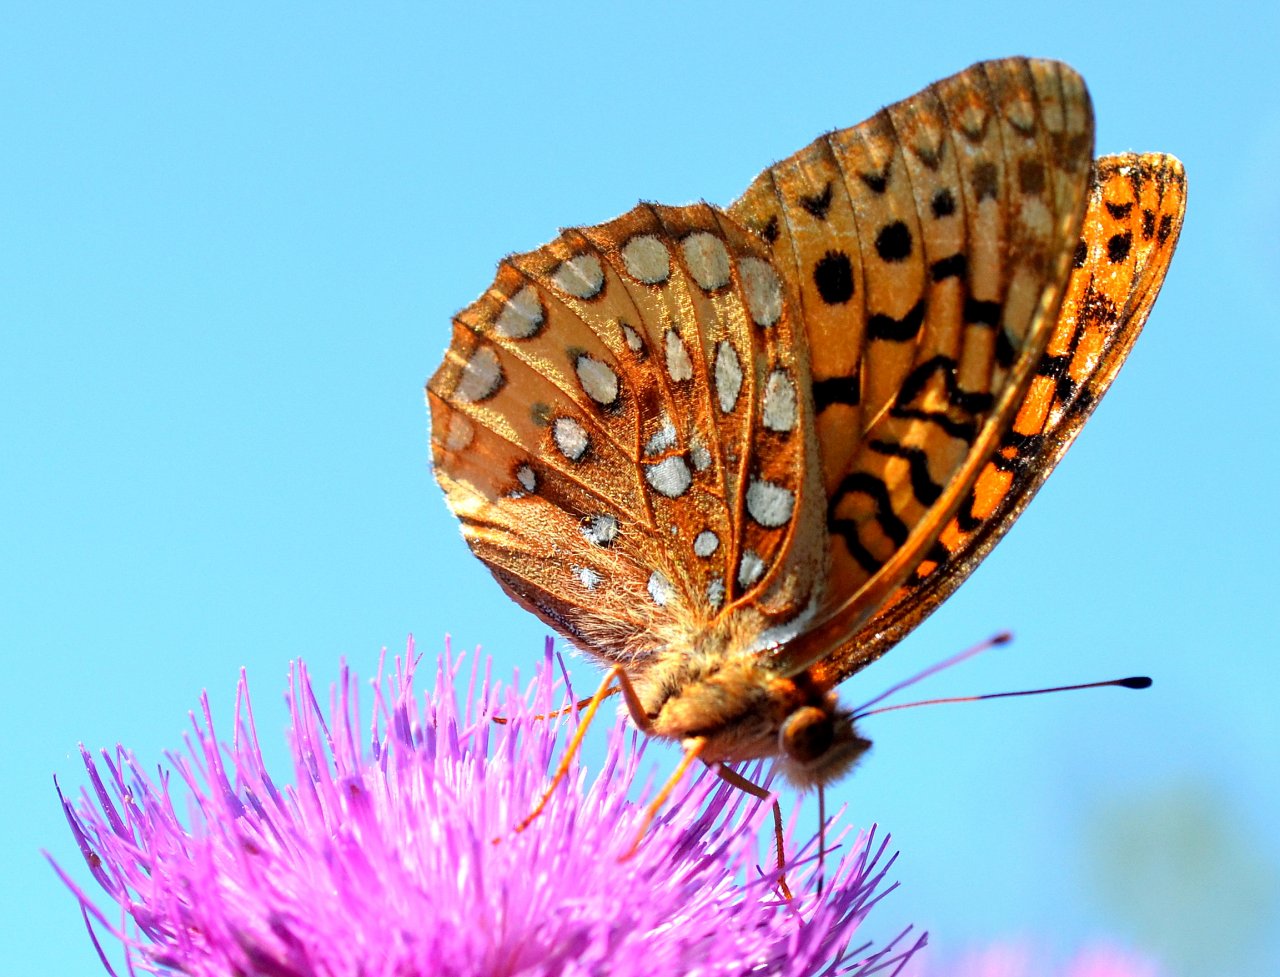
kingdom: Animalia
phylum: Arthropoda
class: Insecta
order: Lepidoptera
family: Nymphalidae
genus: Speyeria
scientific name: Speyeria cybele
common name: Great Spangled Fritillary
